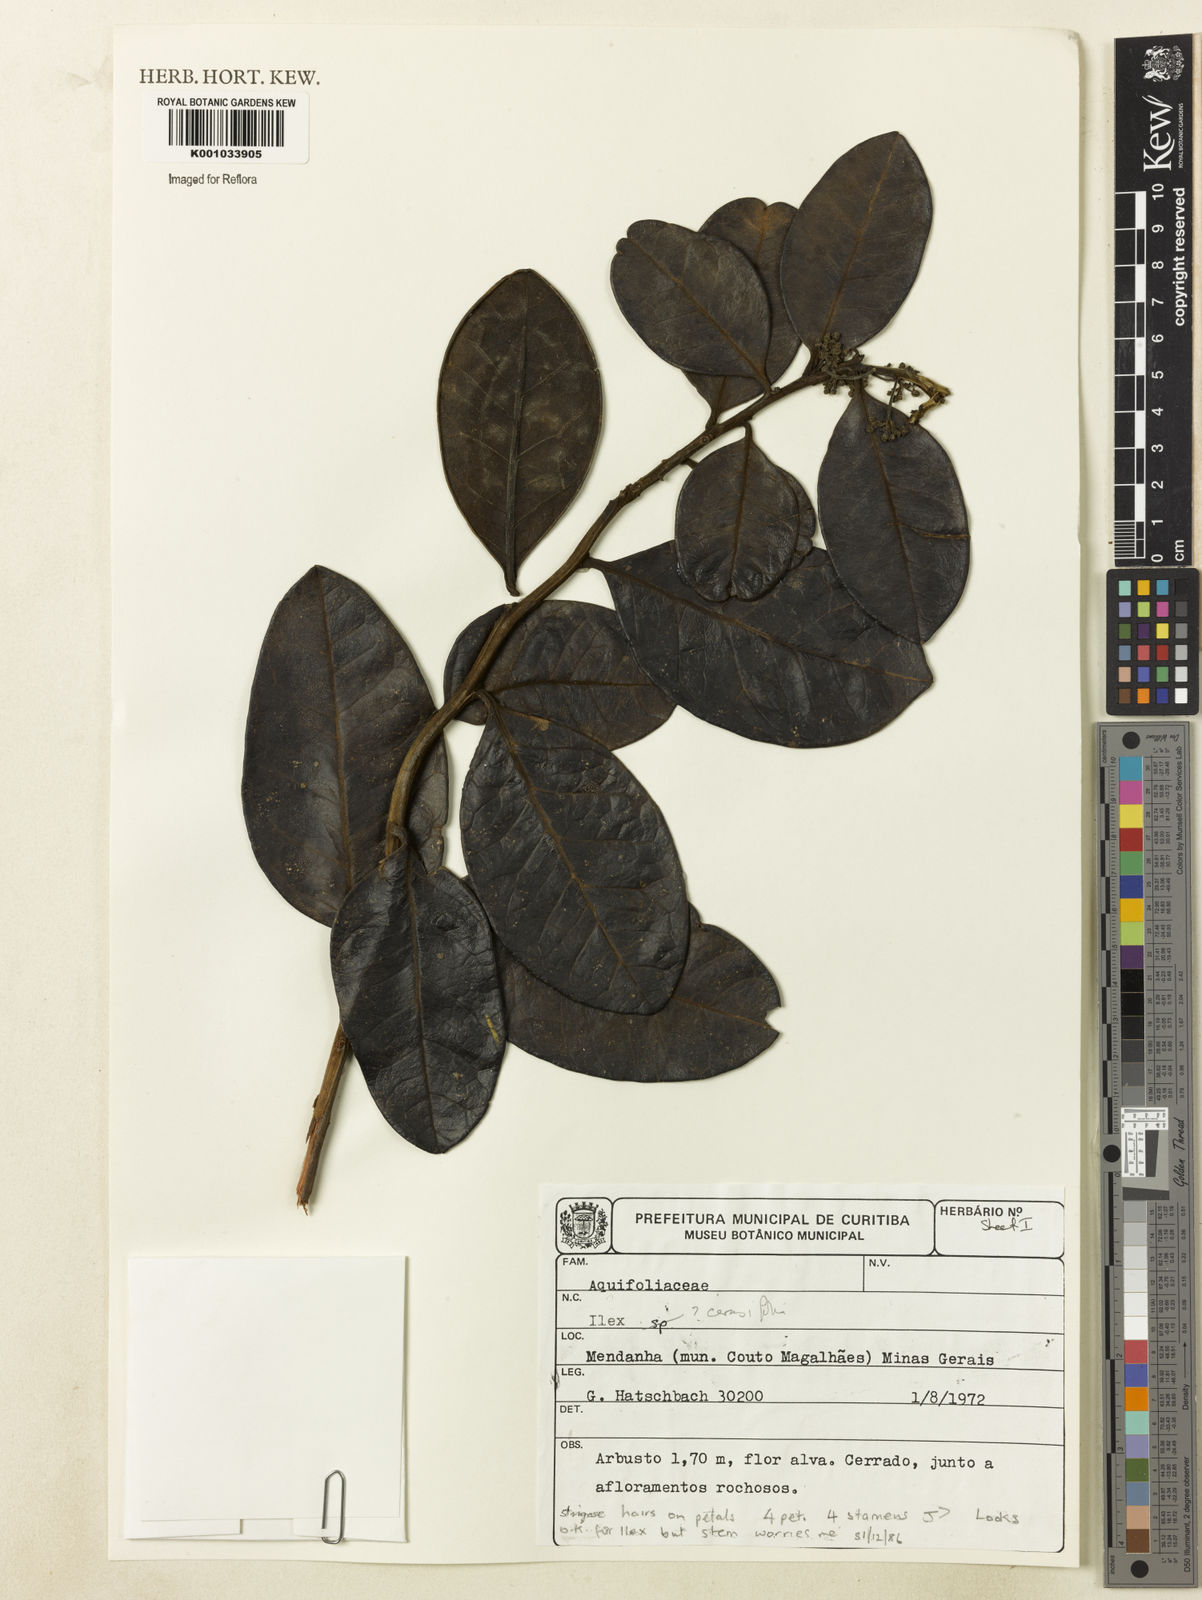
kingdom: Plantae
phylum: Tracheophyta
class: Magnoliopsida
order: Aquifoliales
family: Aquifoliaceae
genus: Ilex
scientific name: Ilex cerasifolia
